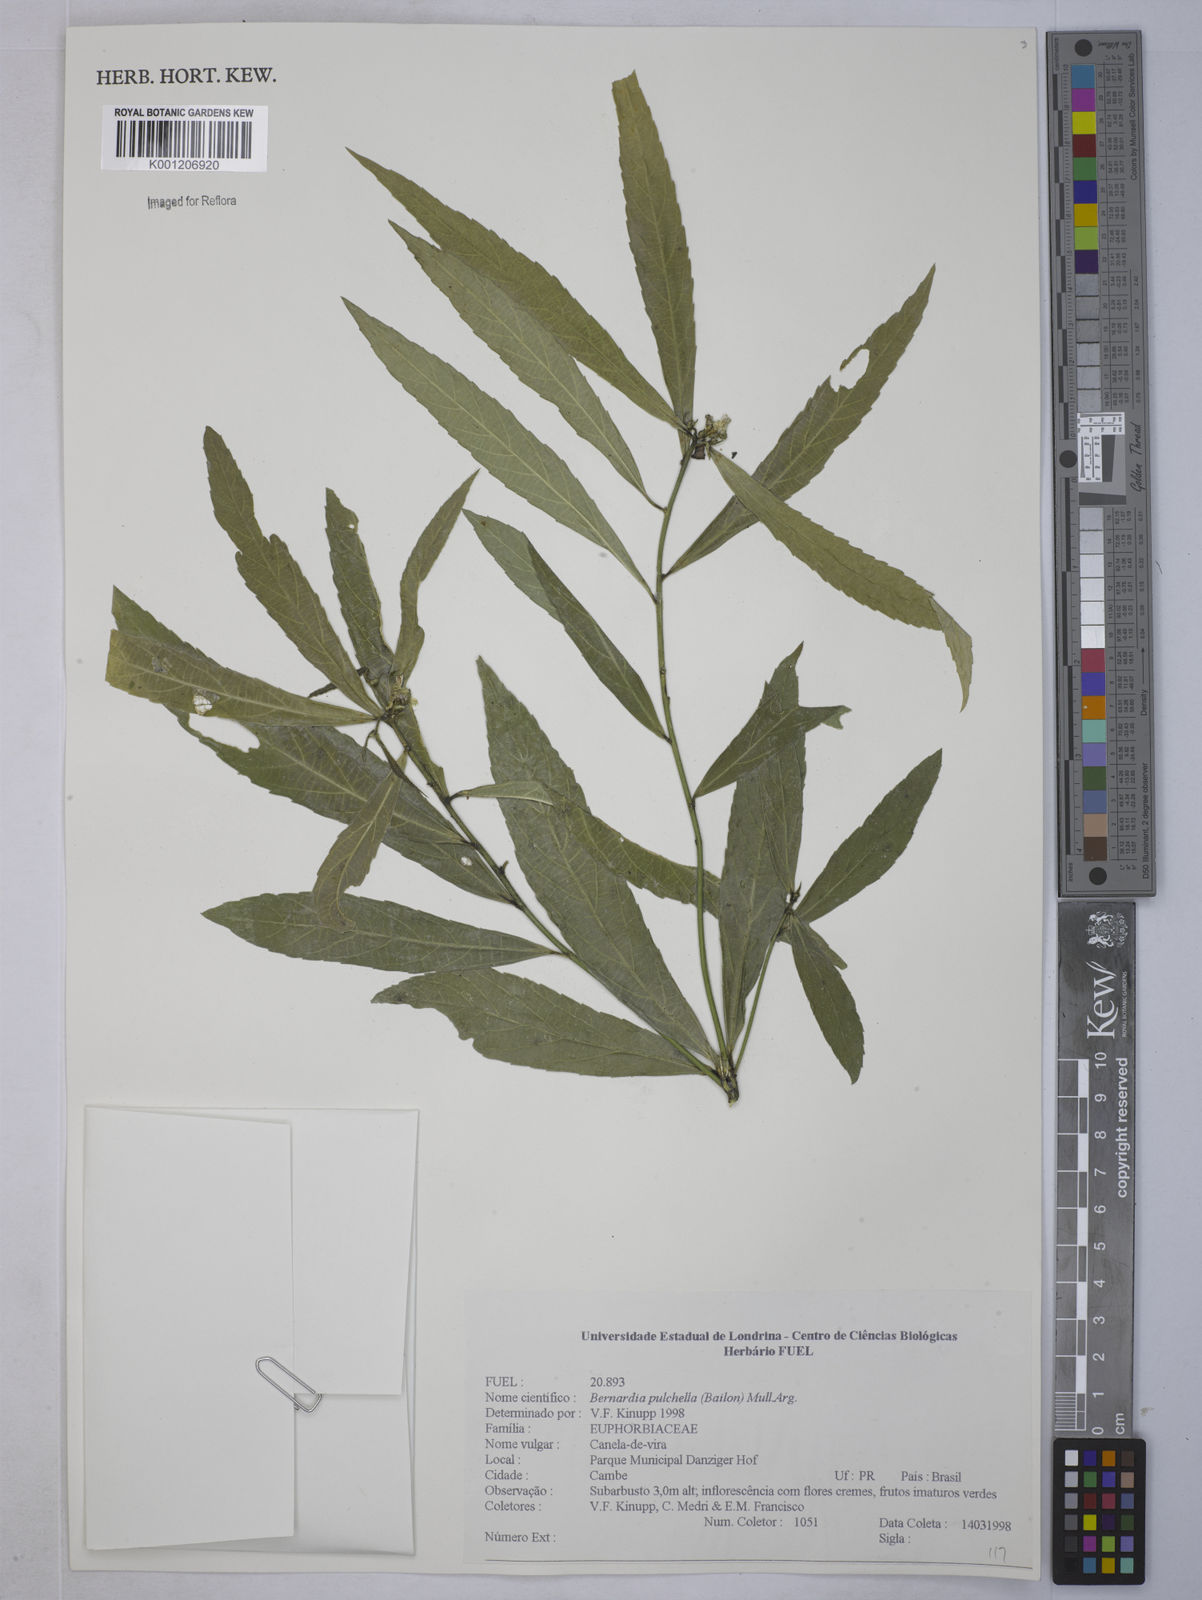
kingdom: Plantae
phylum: Tracheophyta
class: Magnoliopsida
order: Malpighiales
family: Euphorbiaceae
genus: Bernardia
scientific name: Bernardia
